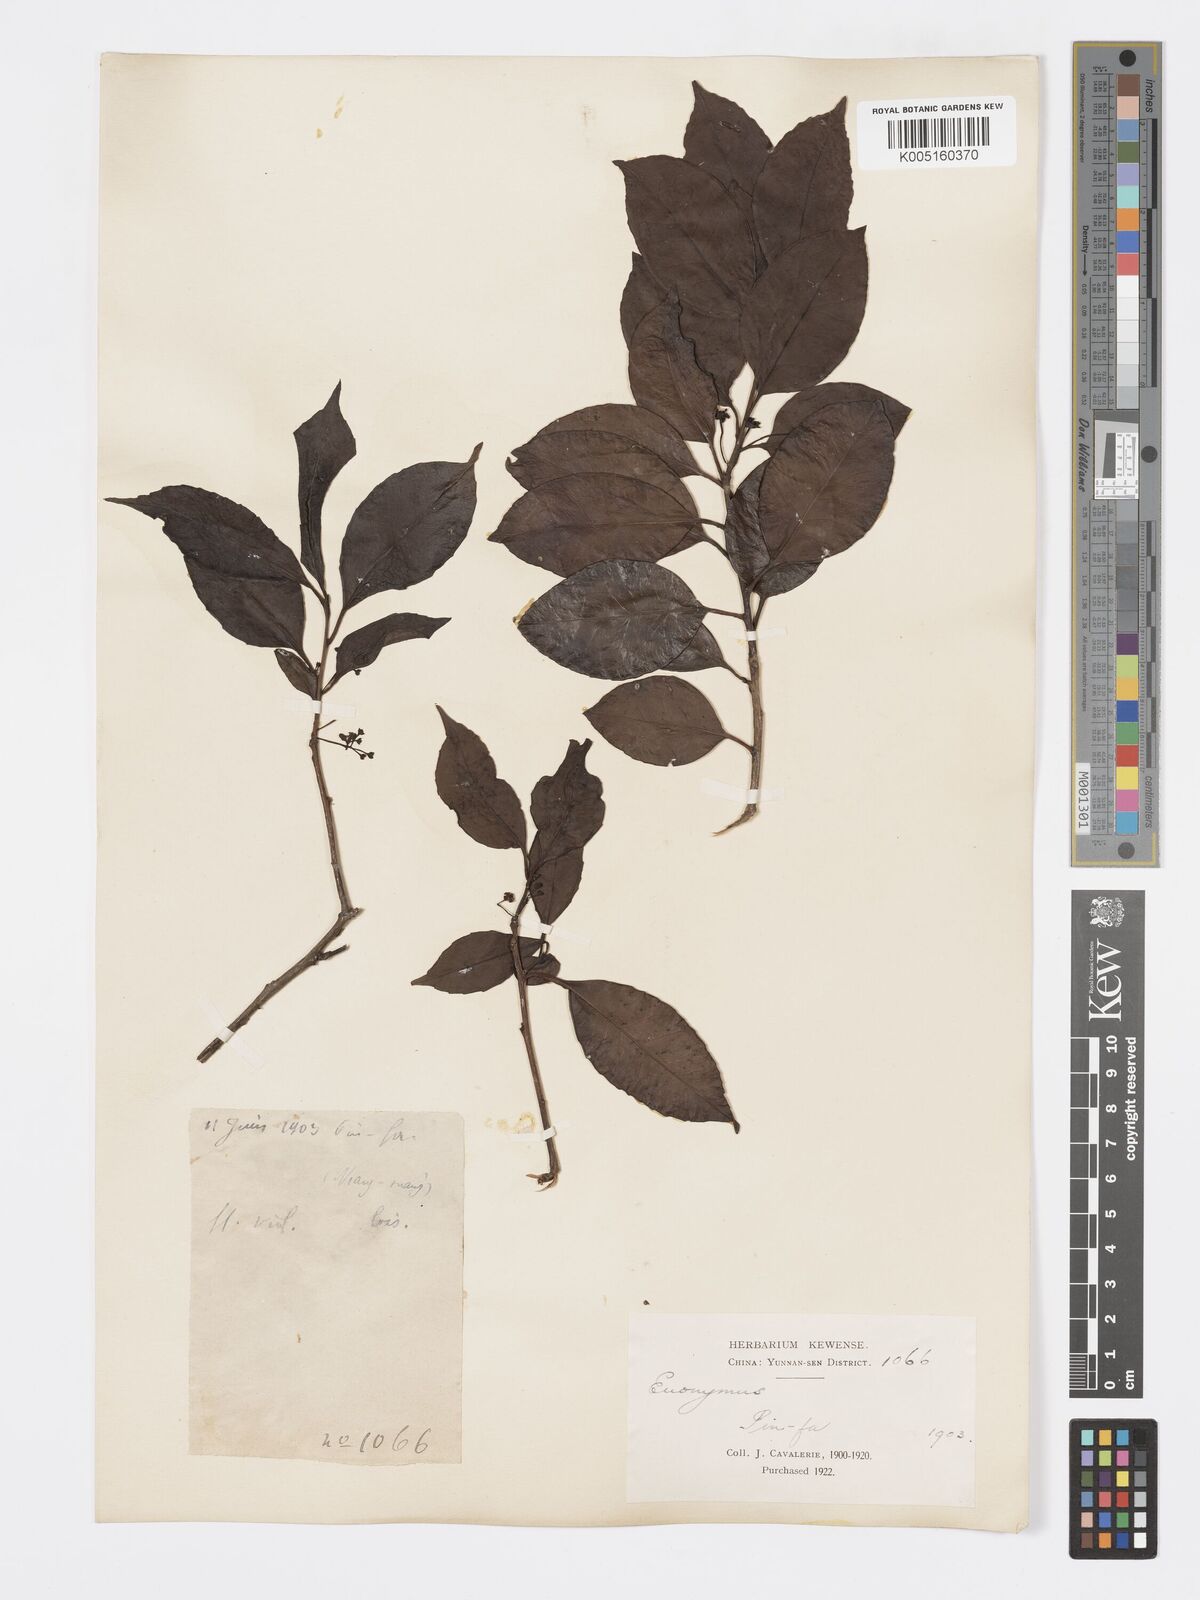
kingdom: Plantae
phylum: Tracheophyta
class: Magnoliopsida
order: Celastrales
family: Celastraceae
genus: Euonymus
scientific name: Euonymus
